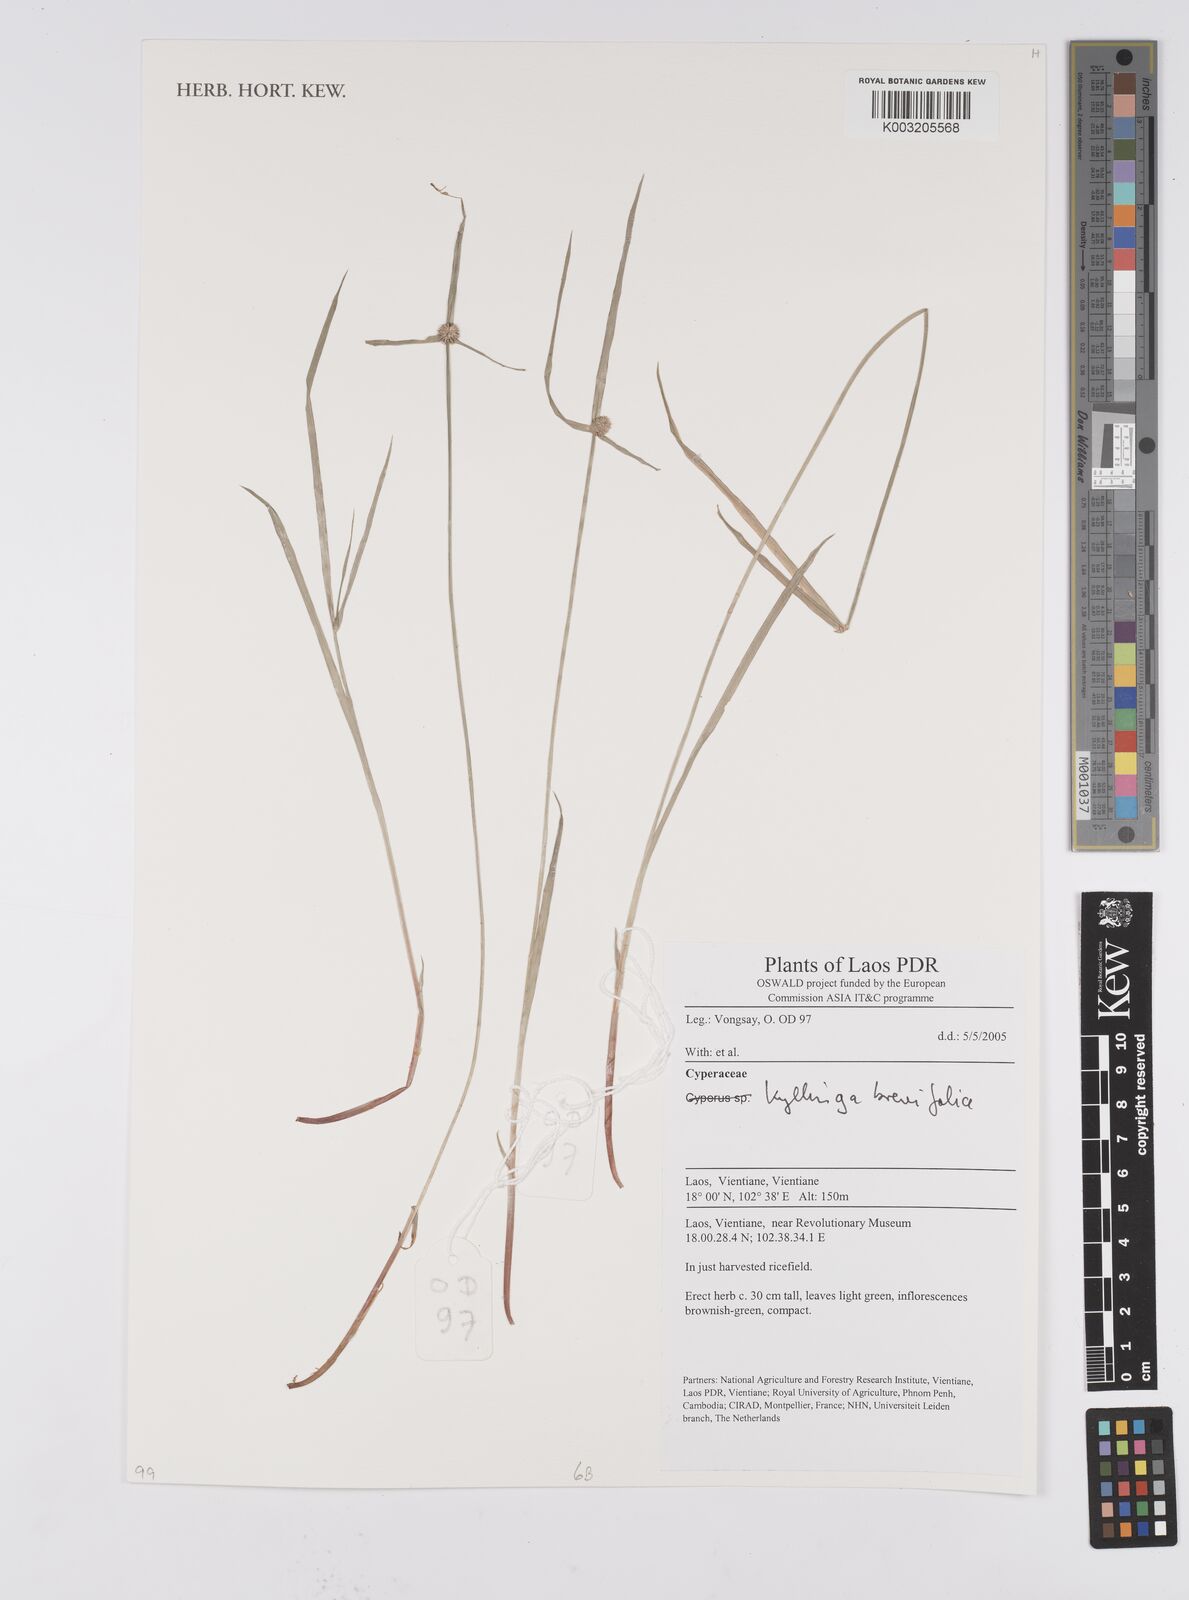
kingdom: Plantae
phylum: Tracheophyta
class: Liliopsida
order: Poales
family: Cyperaceae
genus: Cyperus
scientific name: Cyperus brevifolius
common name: Globe kyllinga
